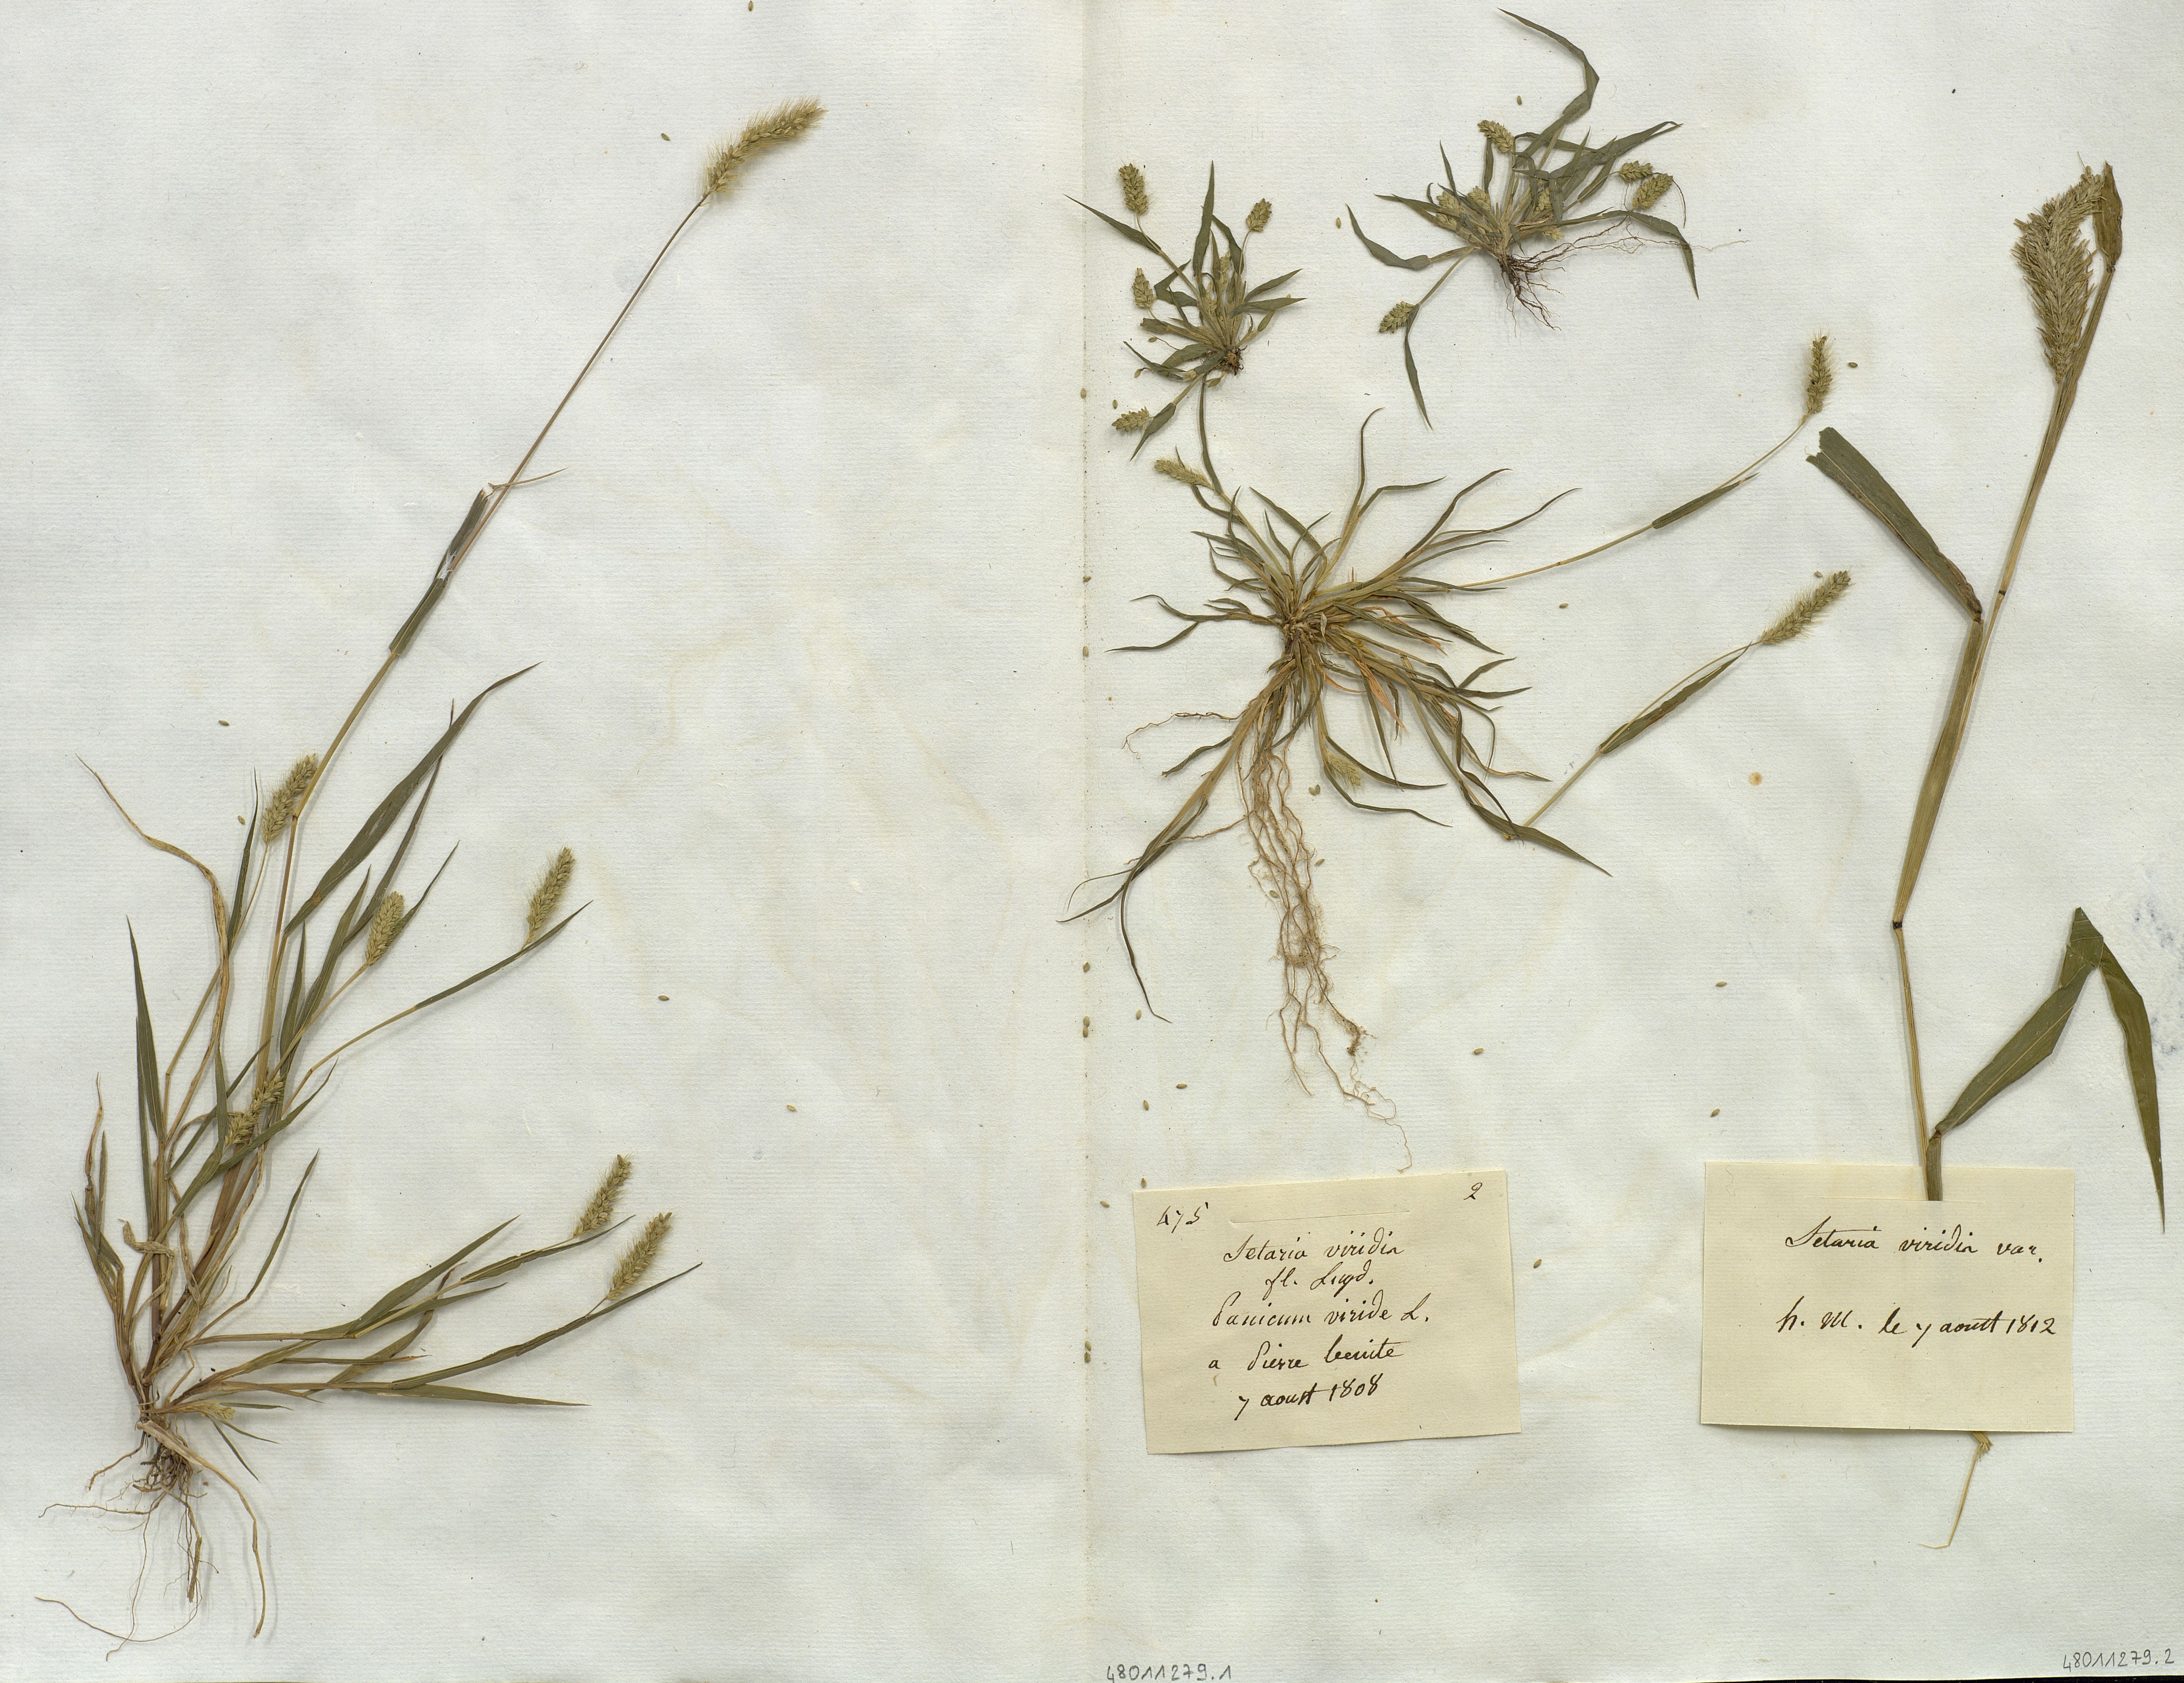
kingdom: Plantae
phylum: Tracheophyta
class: Liliopsida
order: Poales
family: Poaceae
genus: Setaria
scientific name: Setaria viridis
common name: Green bristlegrass
